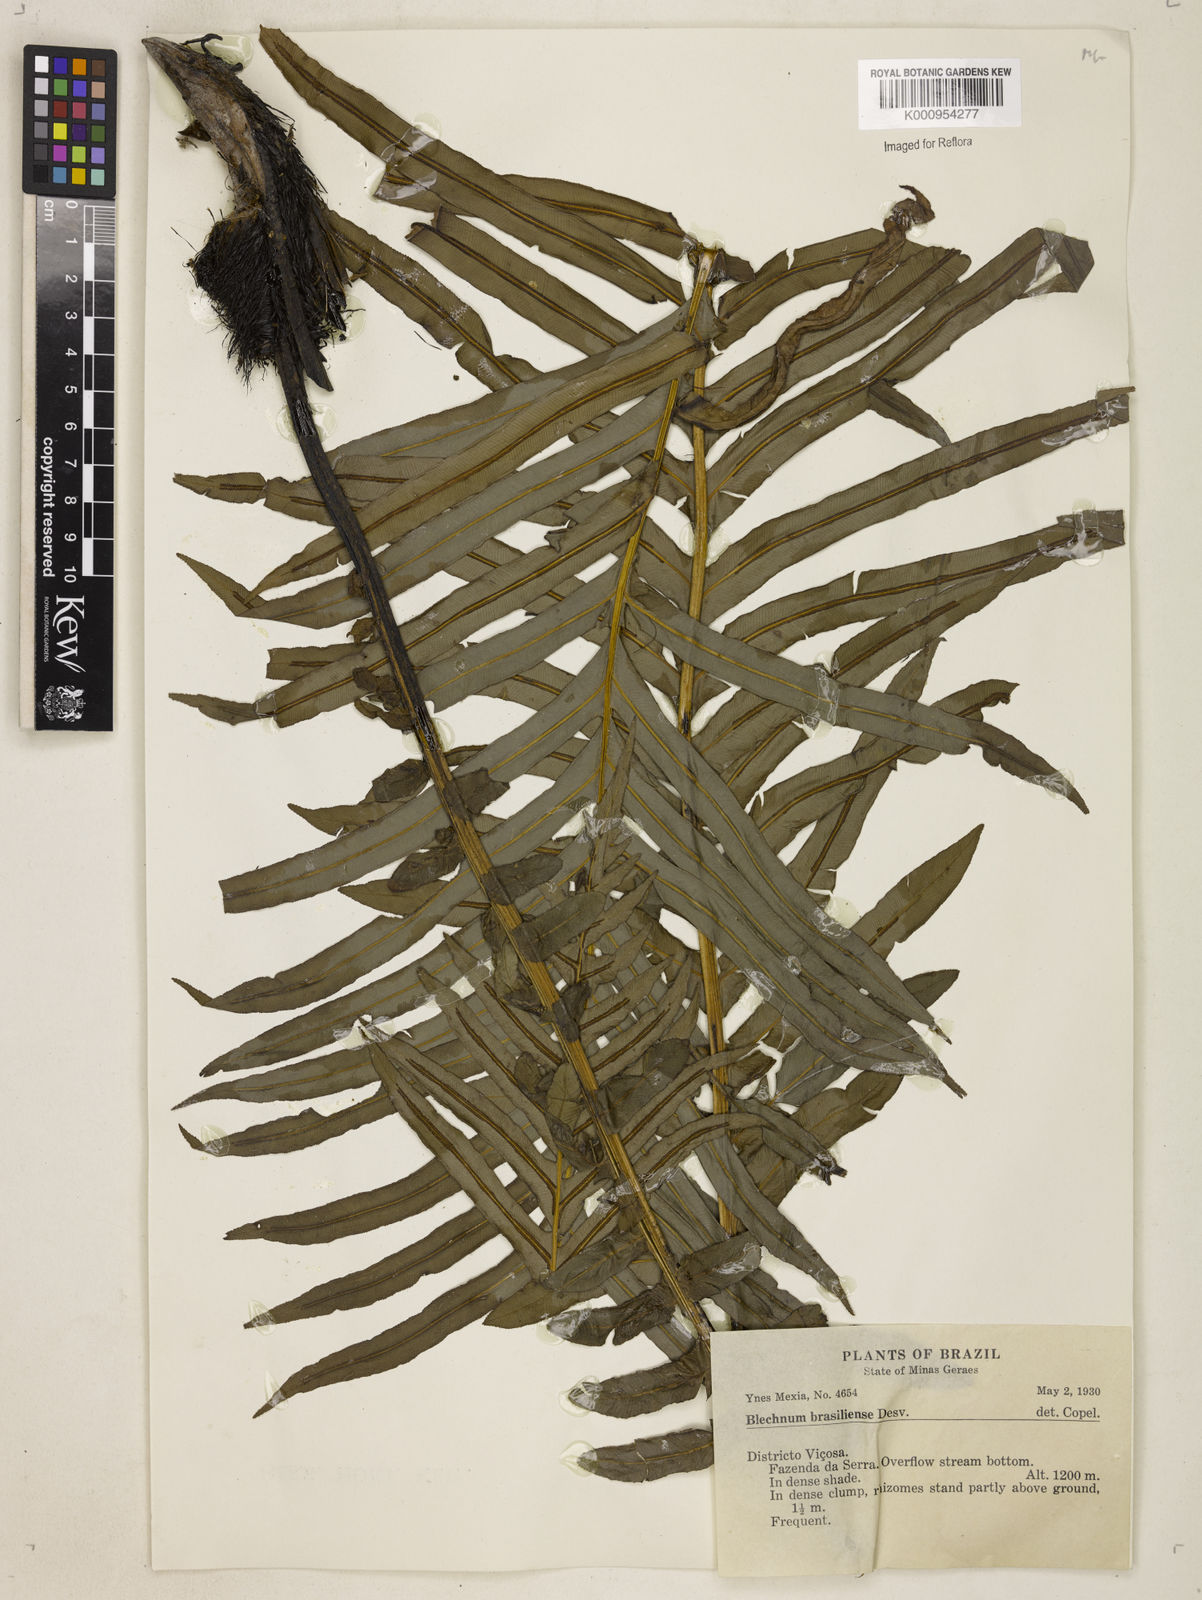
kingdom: Plantae
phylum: Tracheophyta
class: Polypodiopsida
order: Polypodiales
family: Blechnaceae
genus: Neoblechnum
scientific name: Neoblechnum brasiliense
